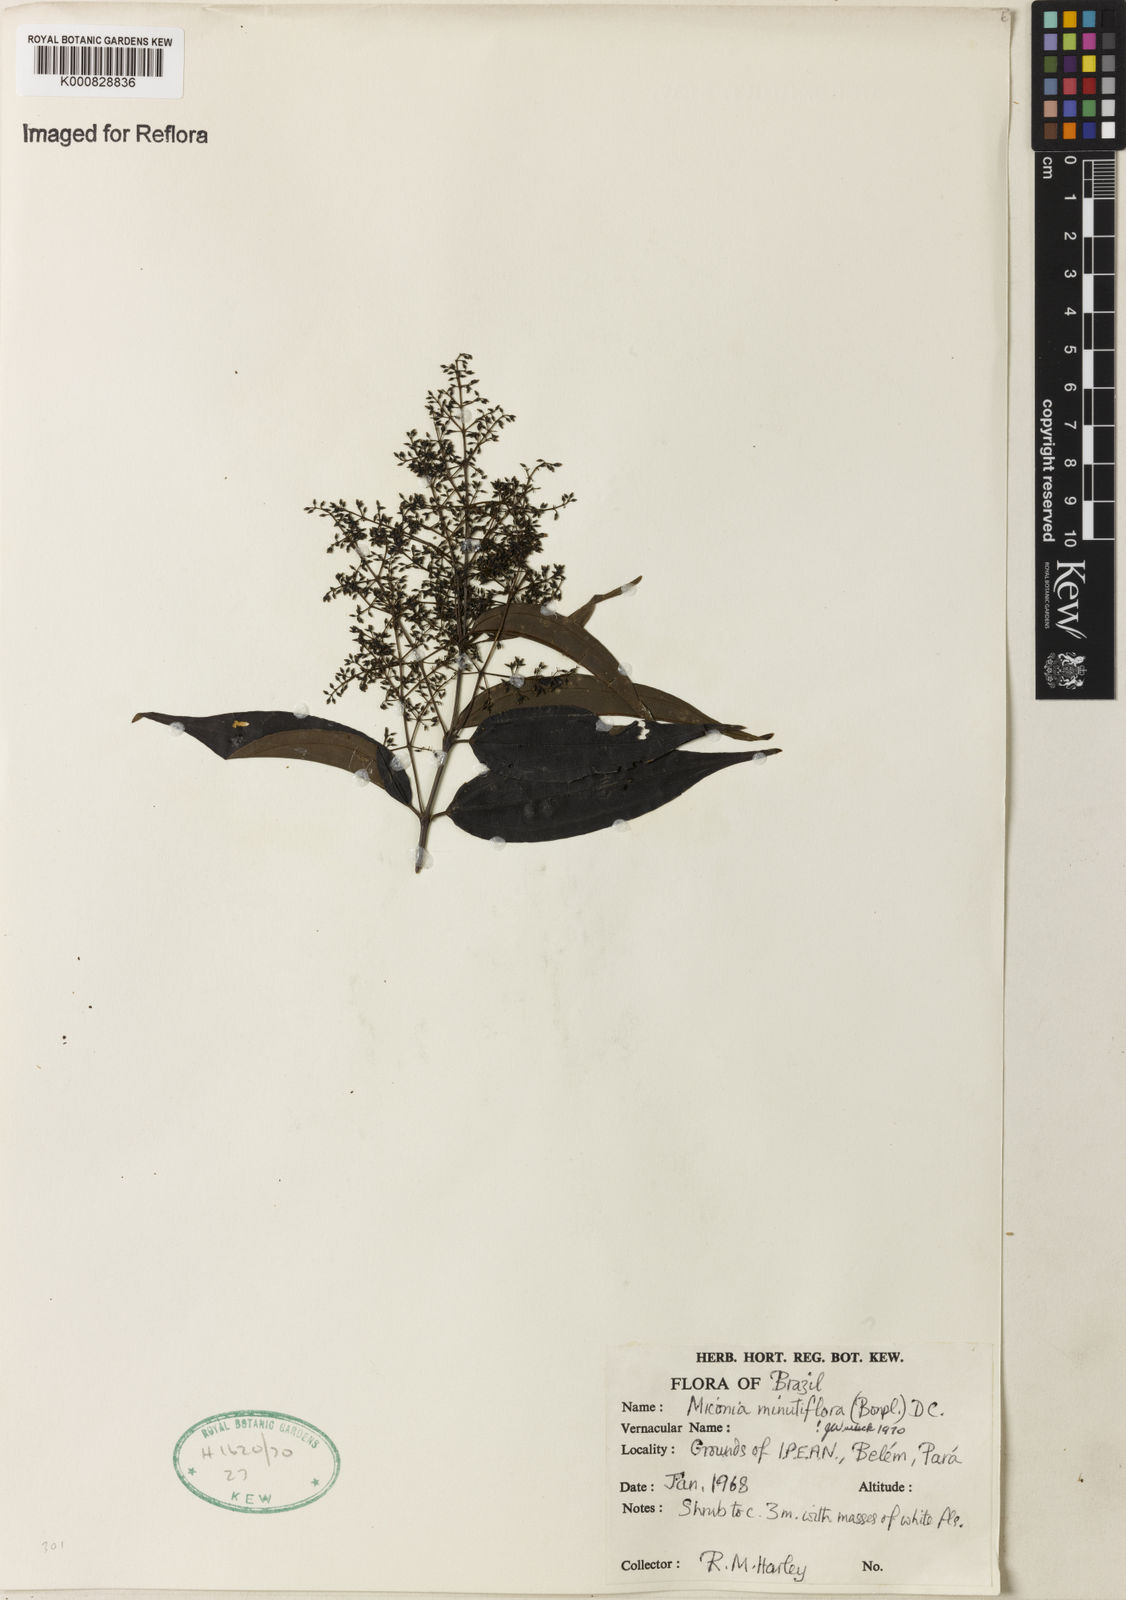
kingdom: Plantae
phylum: Tracheophyta
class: Magnoliopsida
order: Myrtales
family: Melastomataceae
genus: Miconia
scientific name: Miconia minutiflora
